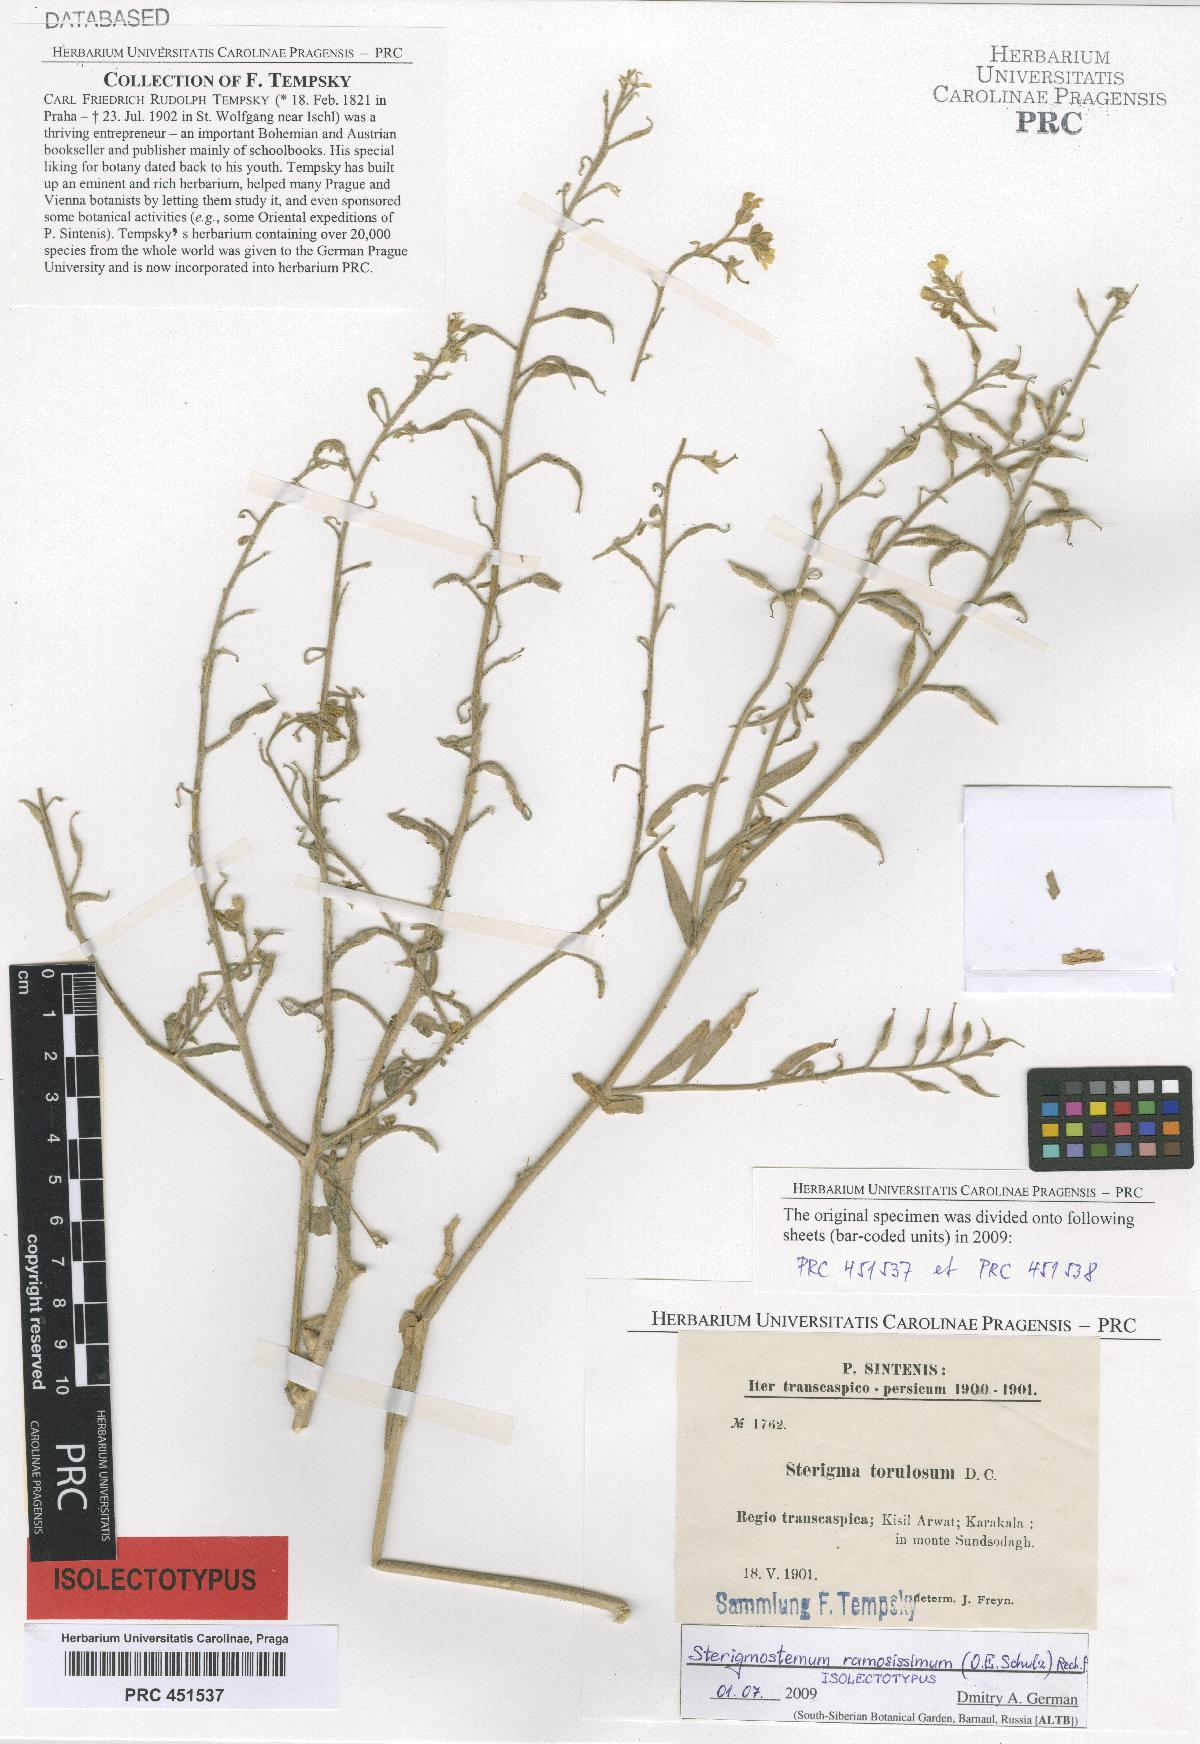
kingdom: Plantae
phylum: Tracheophyta
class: Magnoliopsida
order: Brassicales
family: Brassicaceae
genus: Sterigmostemum
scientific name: Sterigmostemum ramosissimum
